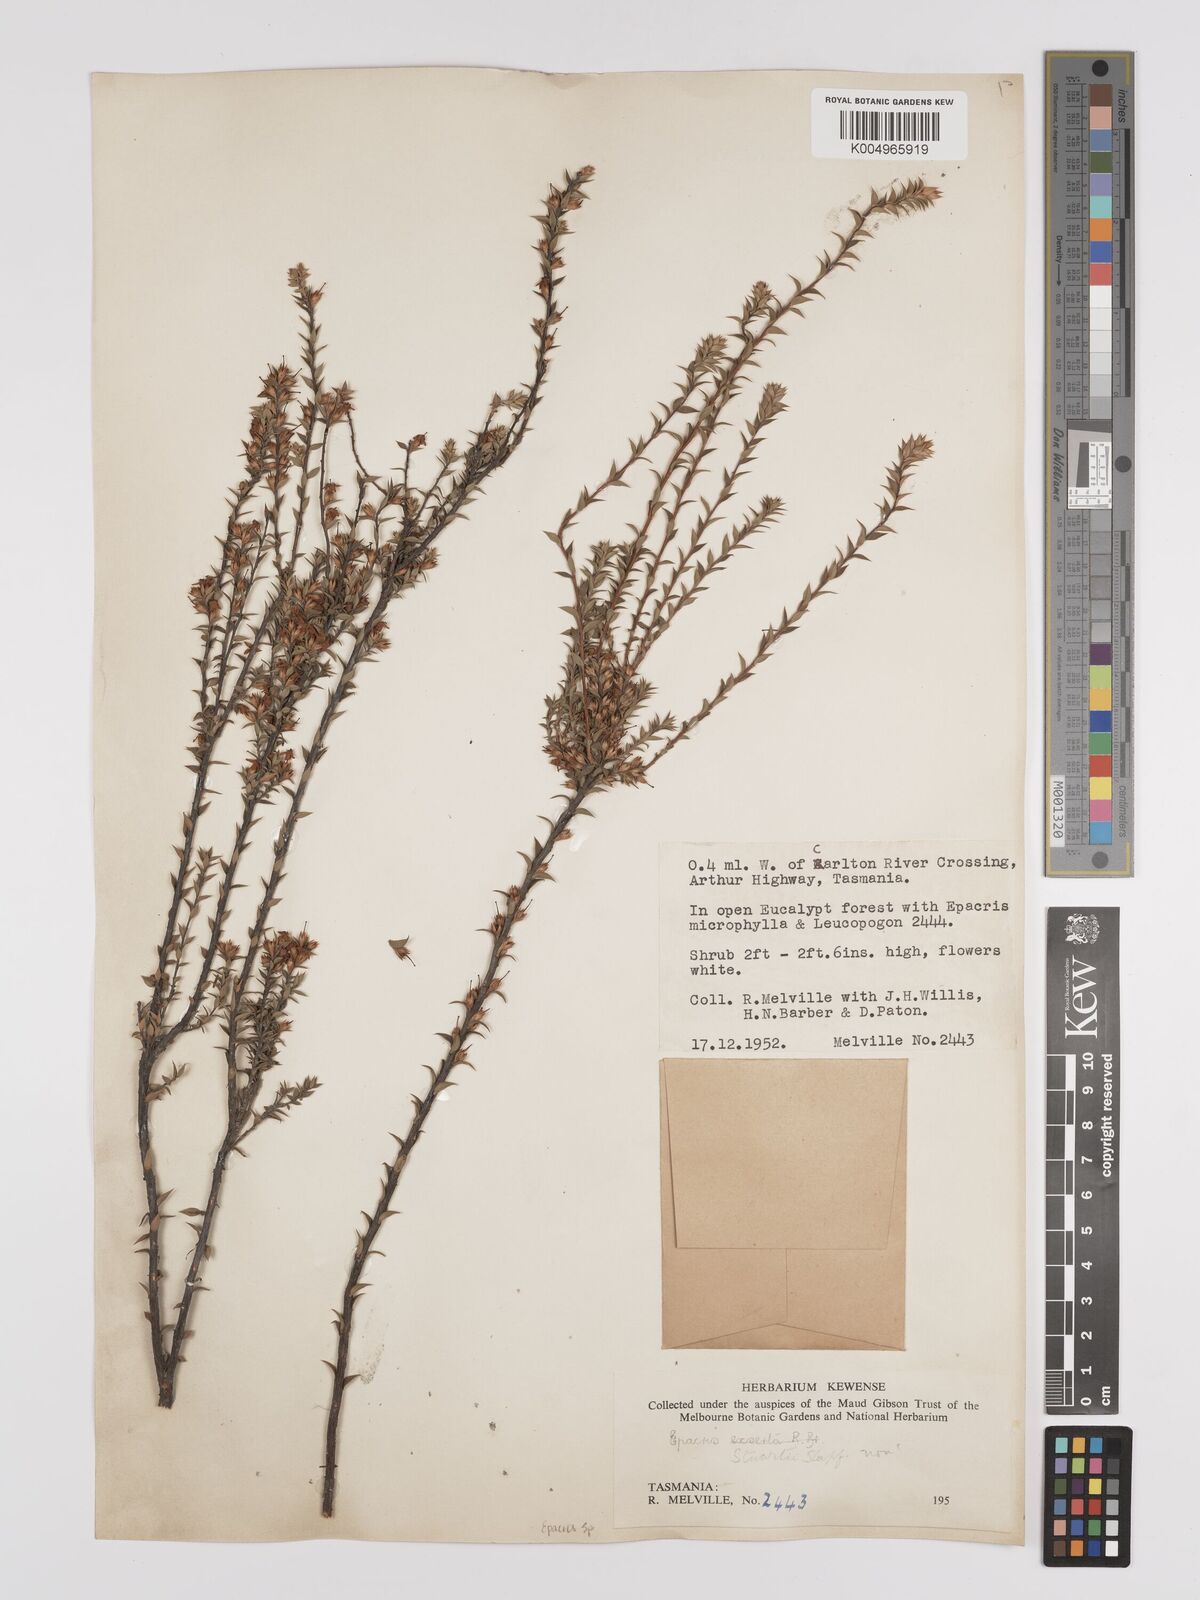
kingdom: Plantae
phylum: Tracheophyta
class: Magnoliopsida
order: Ericales
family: Ericaceae
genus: Epacris
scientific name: Epacris
